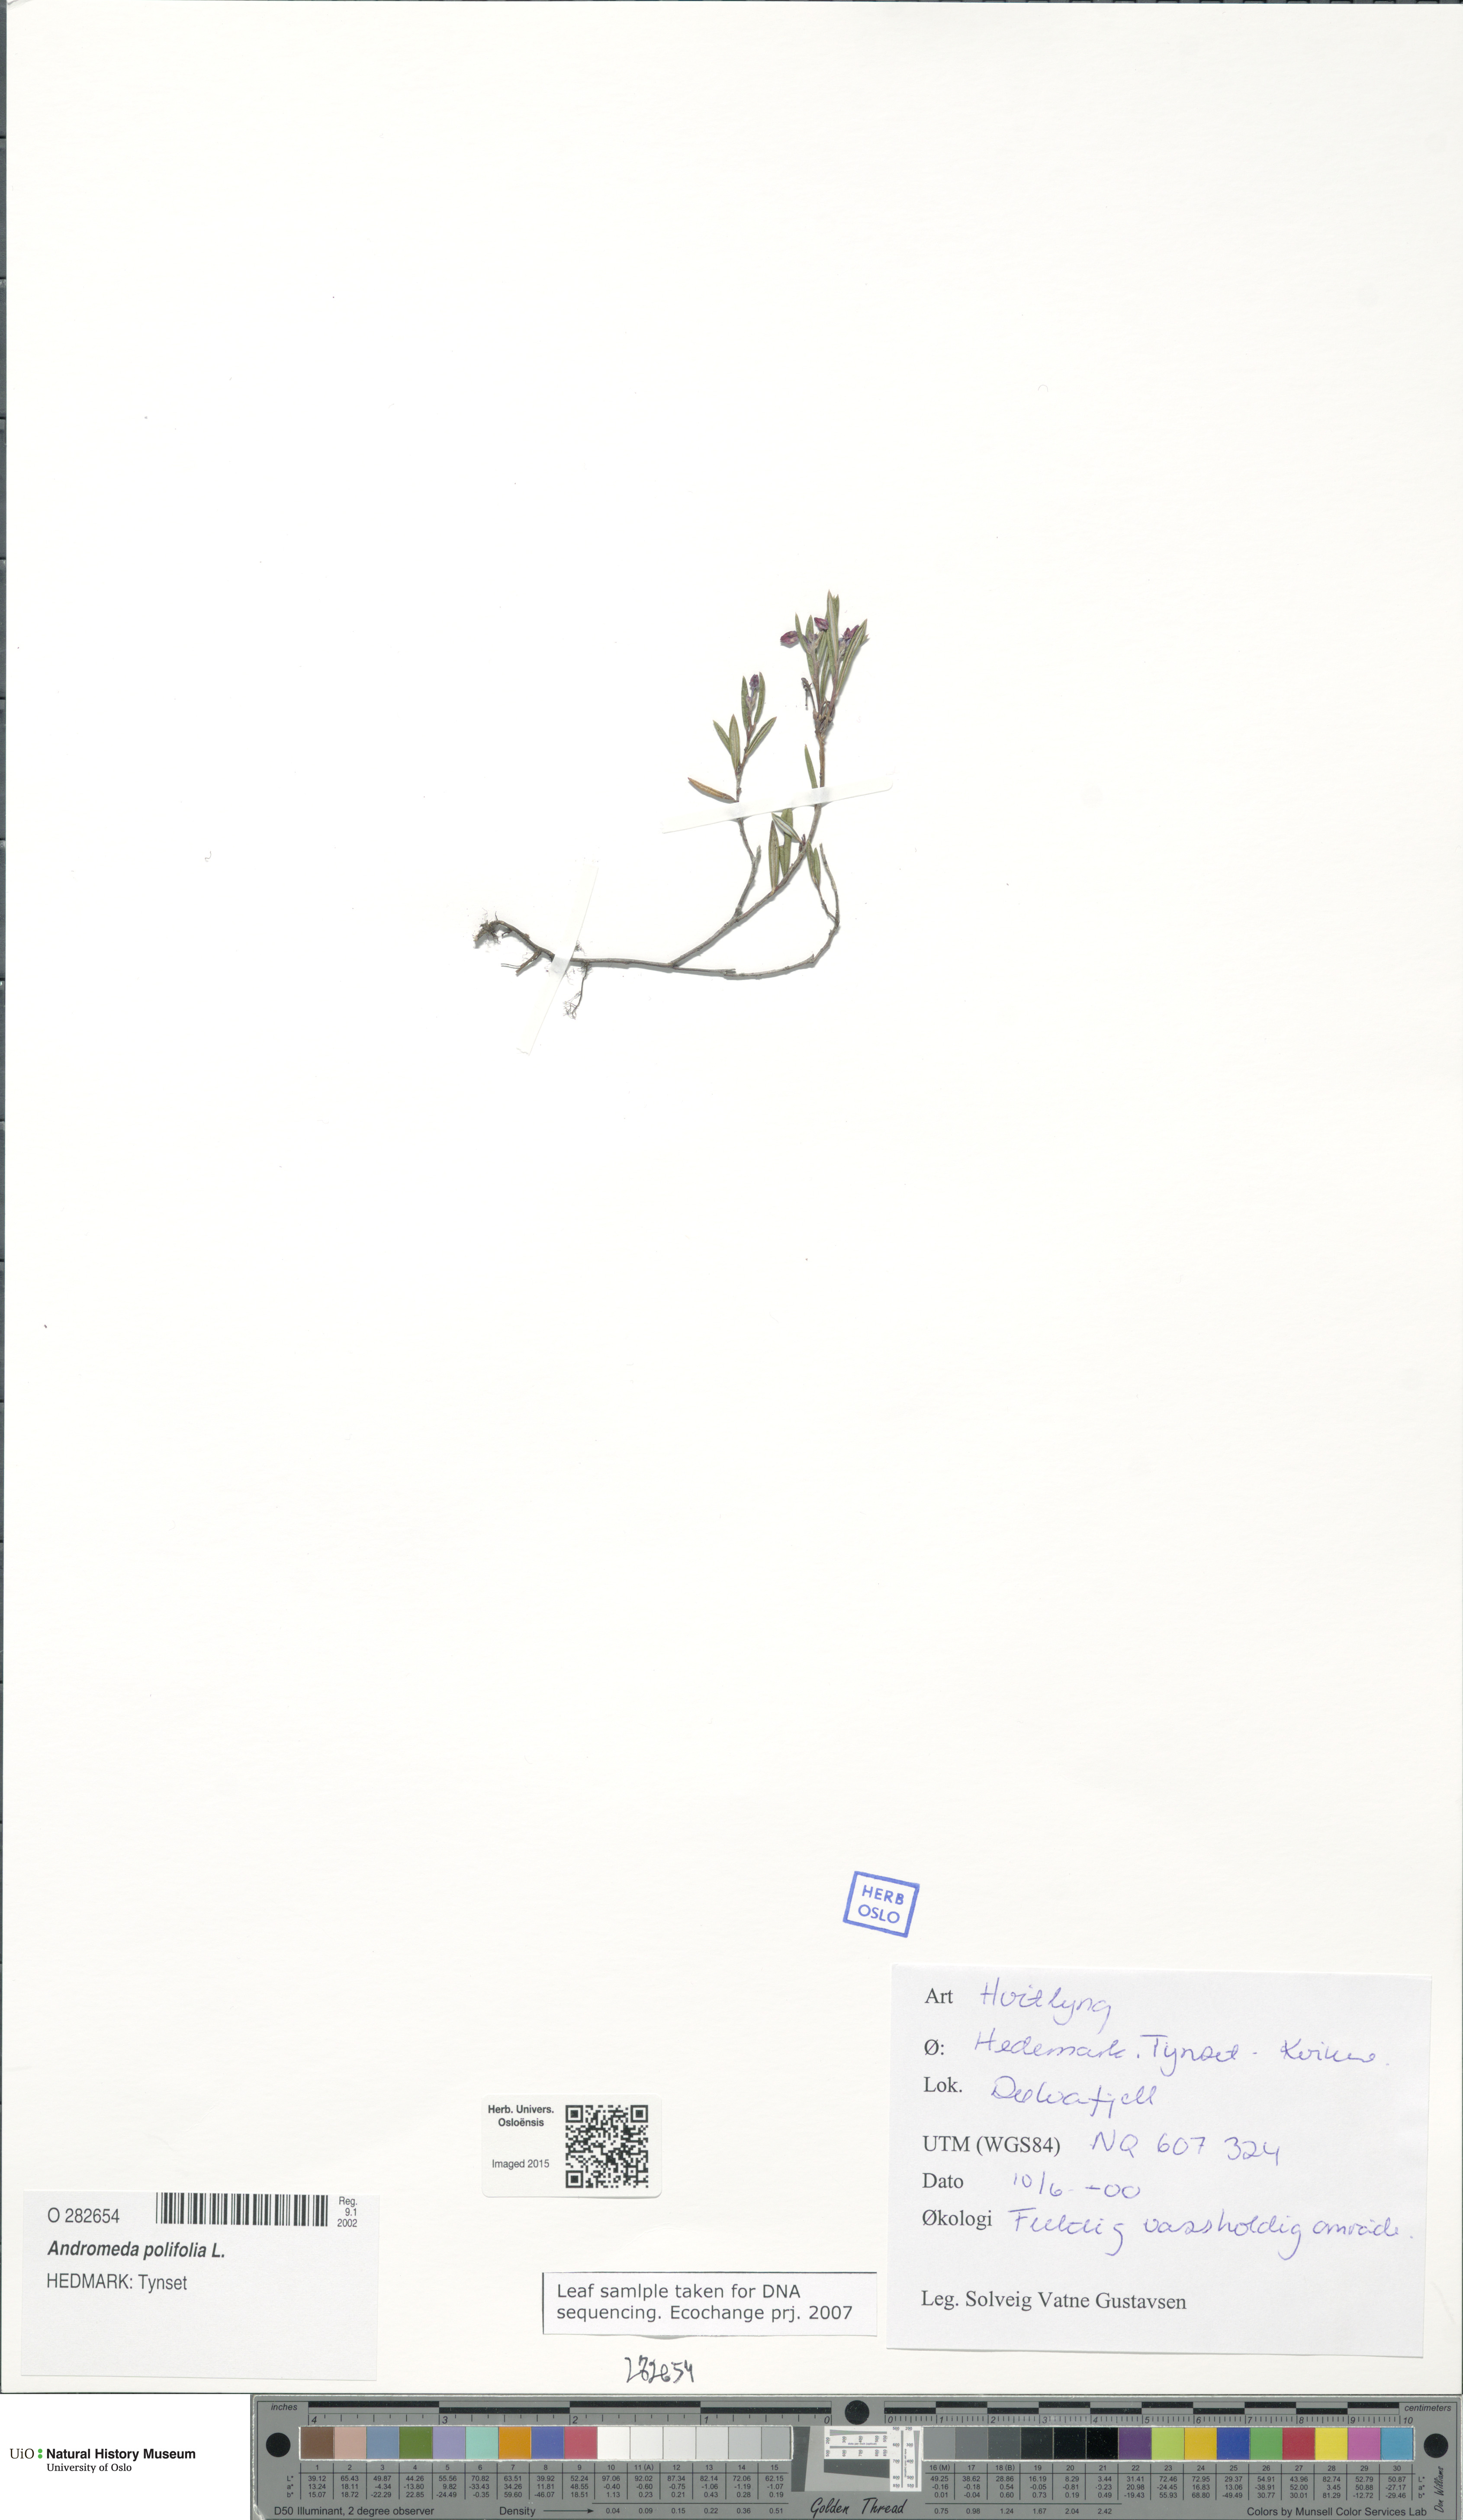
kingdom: Plantae
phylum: Tracheophyta
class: Magnoliopsida
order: Ericales
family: Ericaceae
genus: Andromeda
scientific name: Andromeda polifolia
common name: Bog-rosemary
